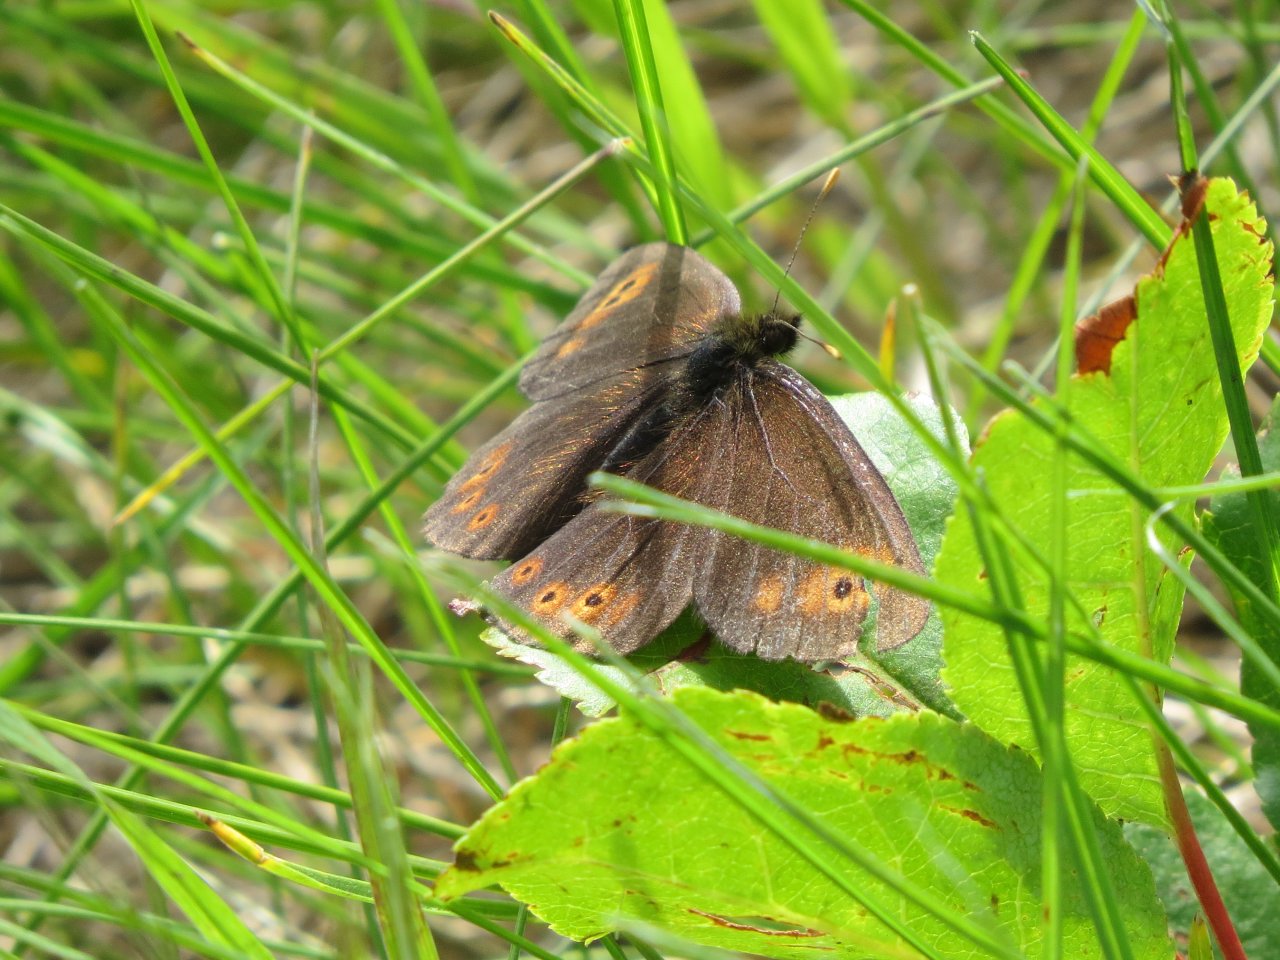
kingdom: Animalia
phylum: Arthropoda
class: Insecta
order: Lepidoptera
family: Nymphalidae
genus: Erebia
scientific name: Erebia epipsodea
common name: Common Alpine
